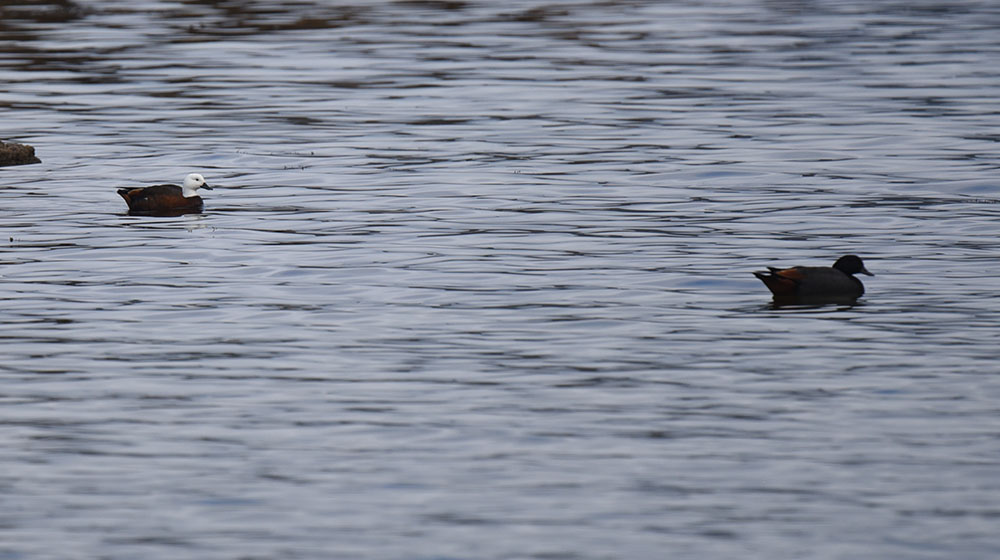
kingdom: Animalia
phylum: Chordata
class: Aves
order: Anseriformes
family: Anatidae
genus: Tadorna
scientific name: Tadorna variegata
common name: Paradise shelduck
